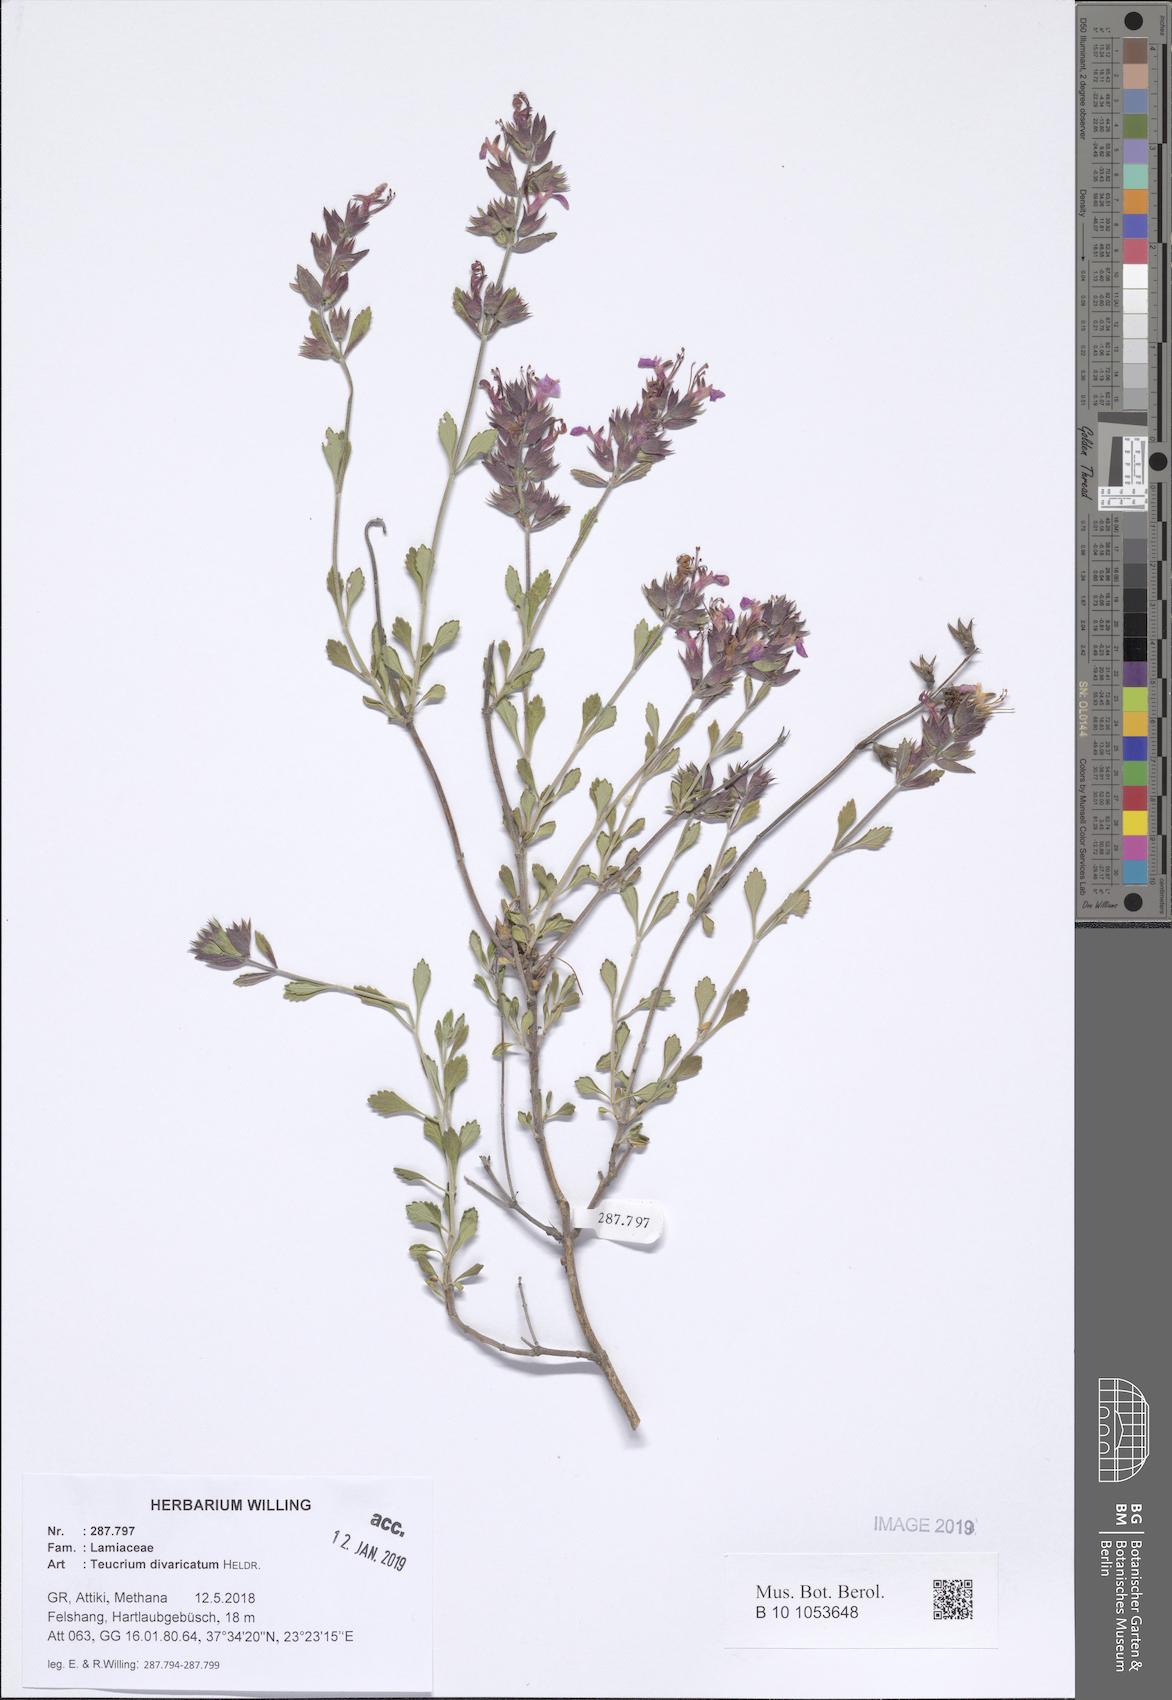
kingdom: Plantae
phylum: Tracheophyta
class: Magnoliopsida
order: Lamiales
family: Lamiaceae
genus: Teucrium
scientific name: Teucrium divaricatum
